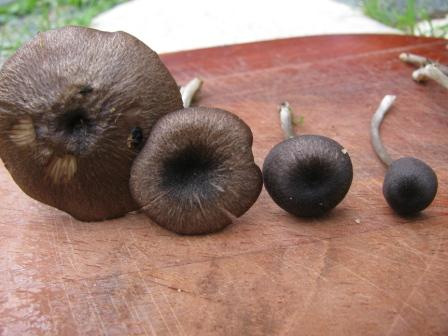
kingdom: Fungi
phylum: Basidiomycota
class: Agaricomycetes
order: Agaricales
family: Entolomataceae
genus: Entoloma
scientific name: Entoloma
